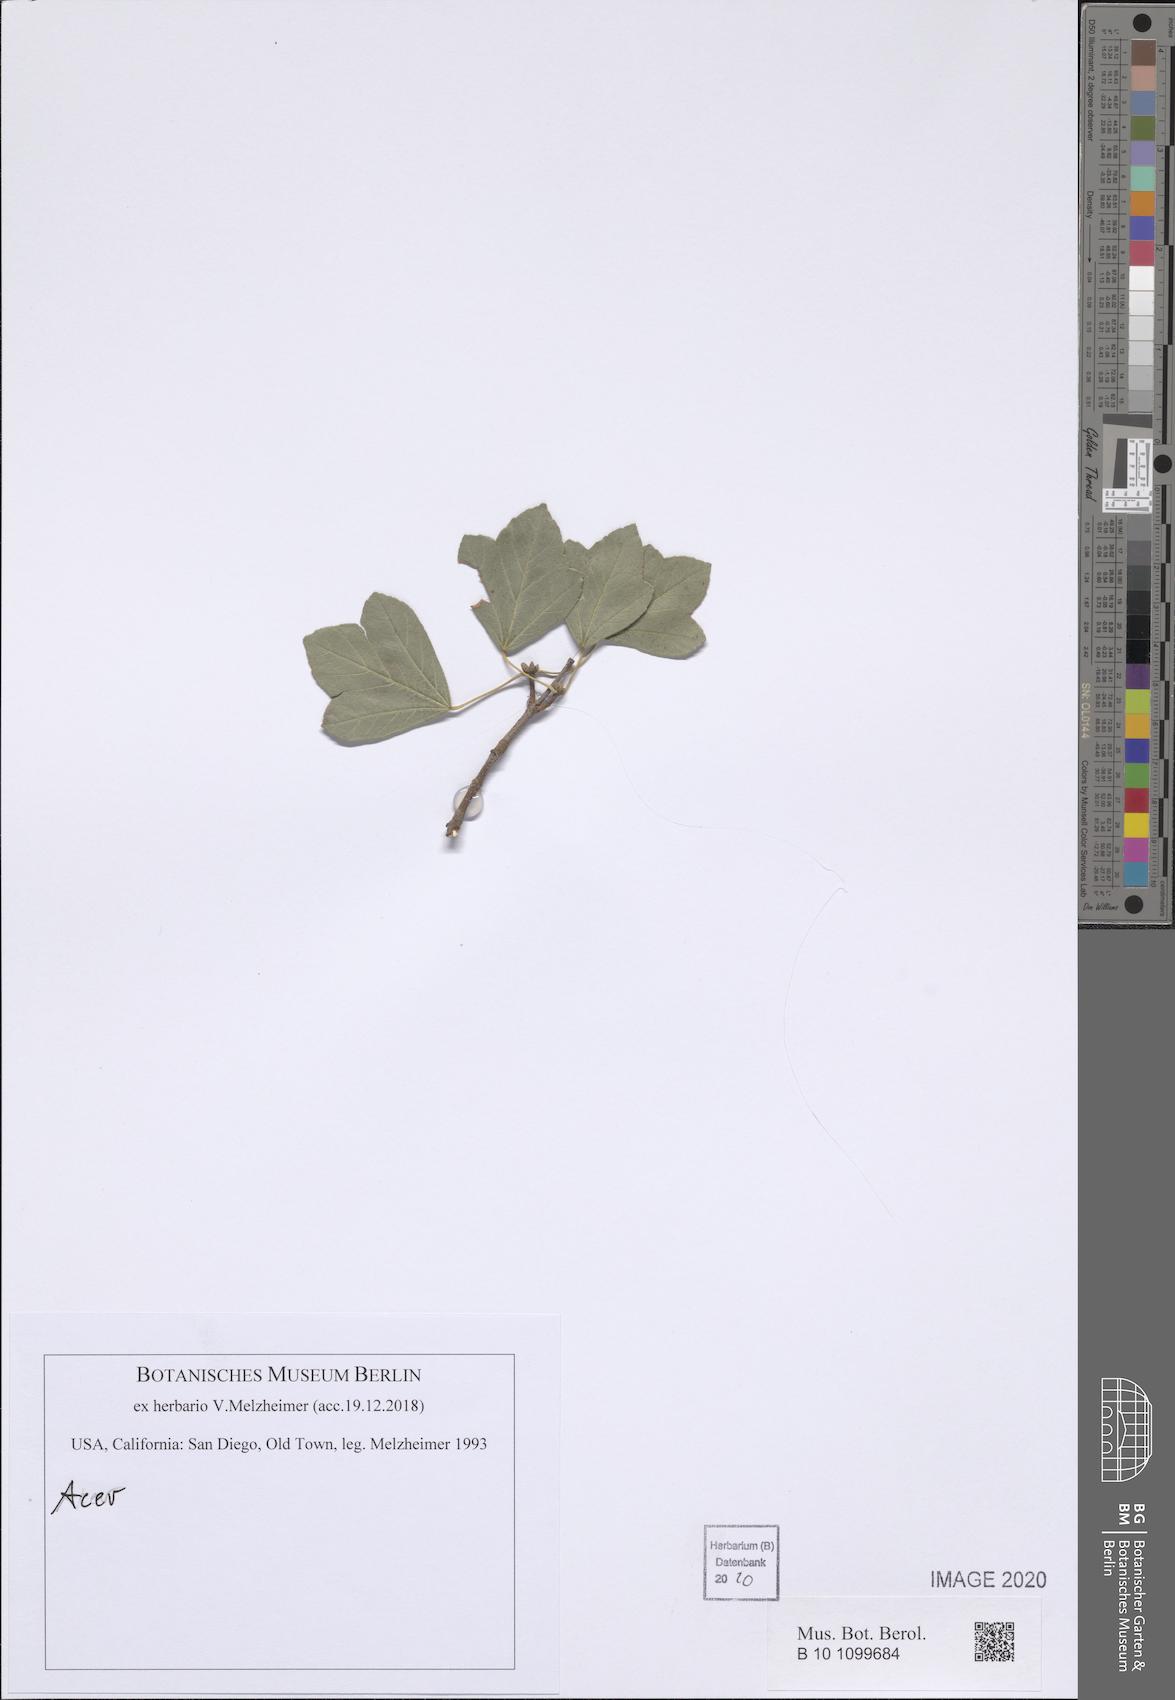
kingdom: Plantae
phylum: Tracheophyta
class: Magnoliopsida
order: Sapindales
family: Sapindaceae
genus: Acer
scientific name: Acer
